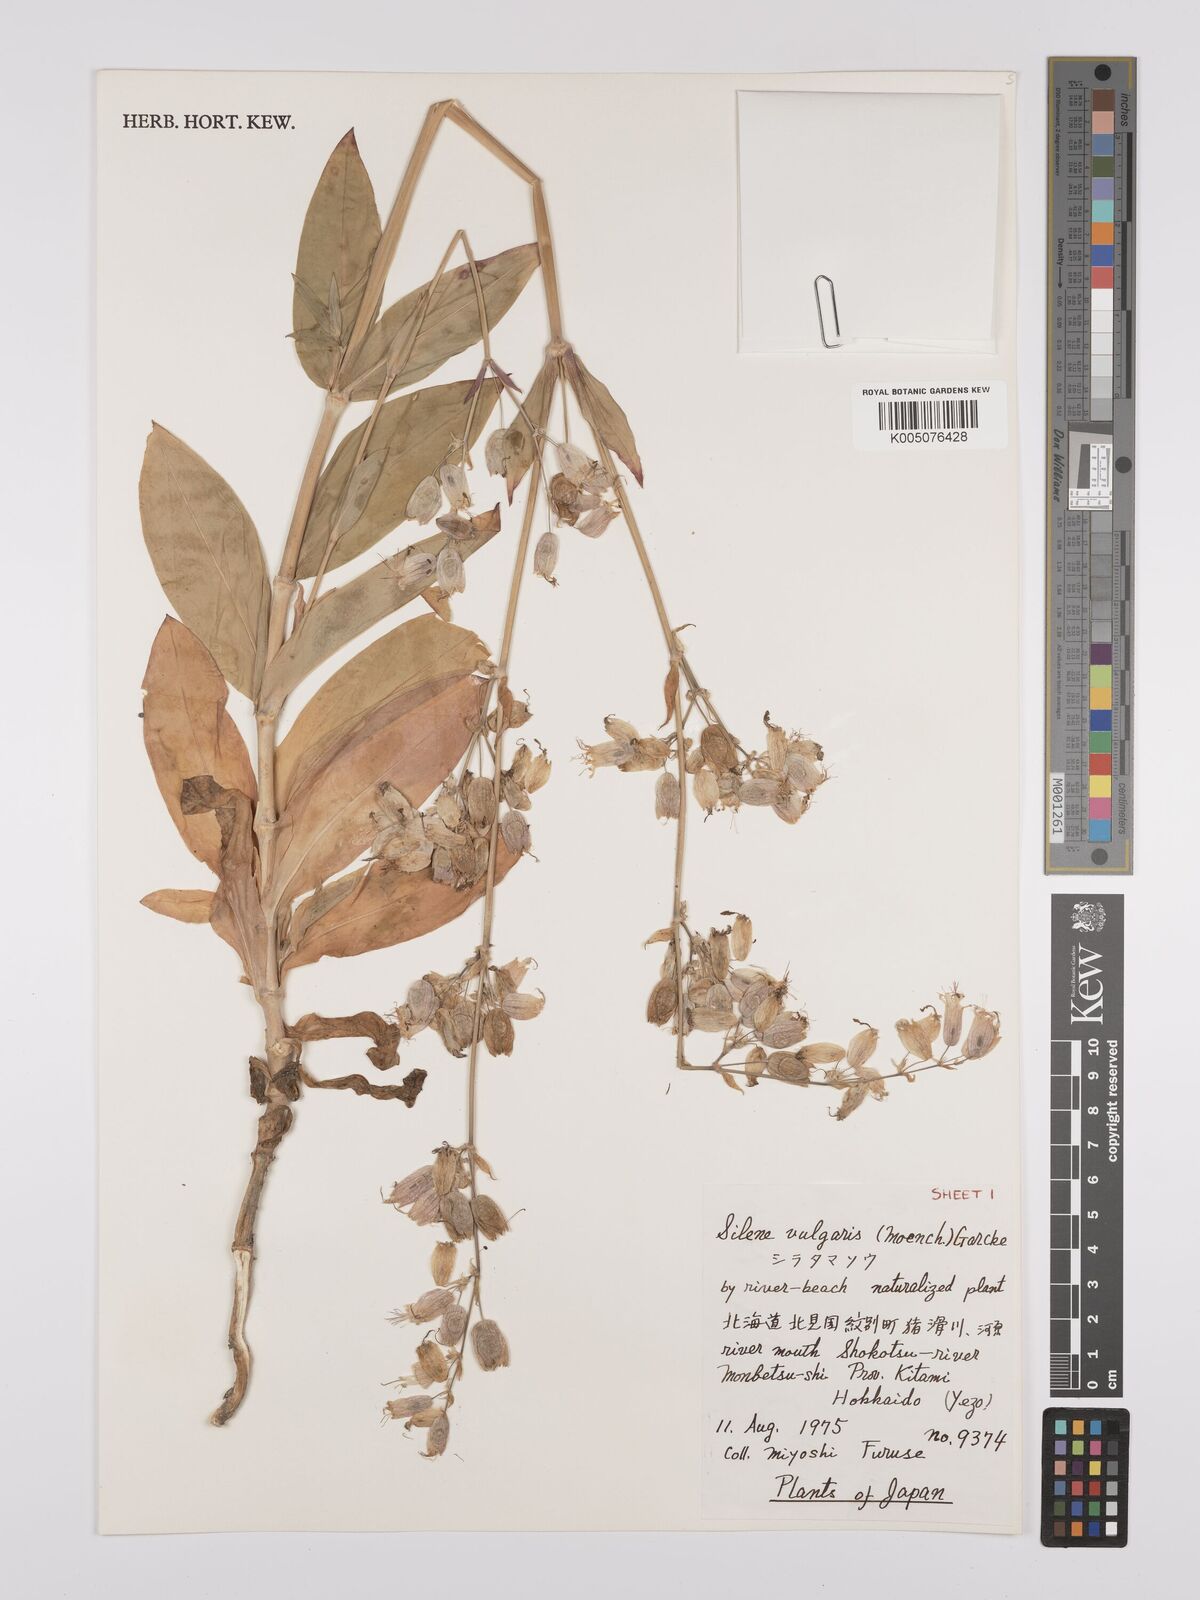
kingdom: Plantae
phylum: Tracheophyta
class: Magnoliopsida
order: Caryophyllales
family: Caryophyllaceae
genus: Silene
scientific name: Silene vulgaris
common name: Bladder campion
